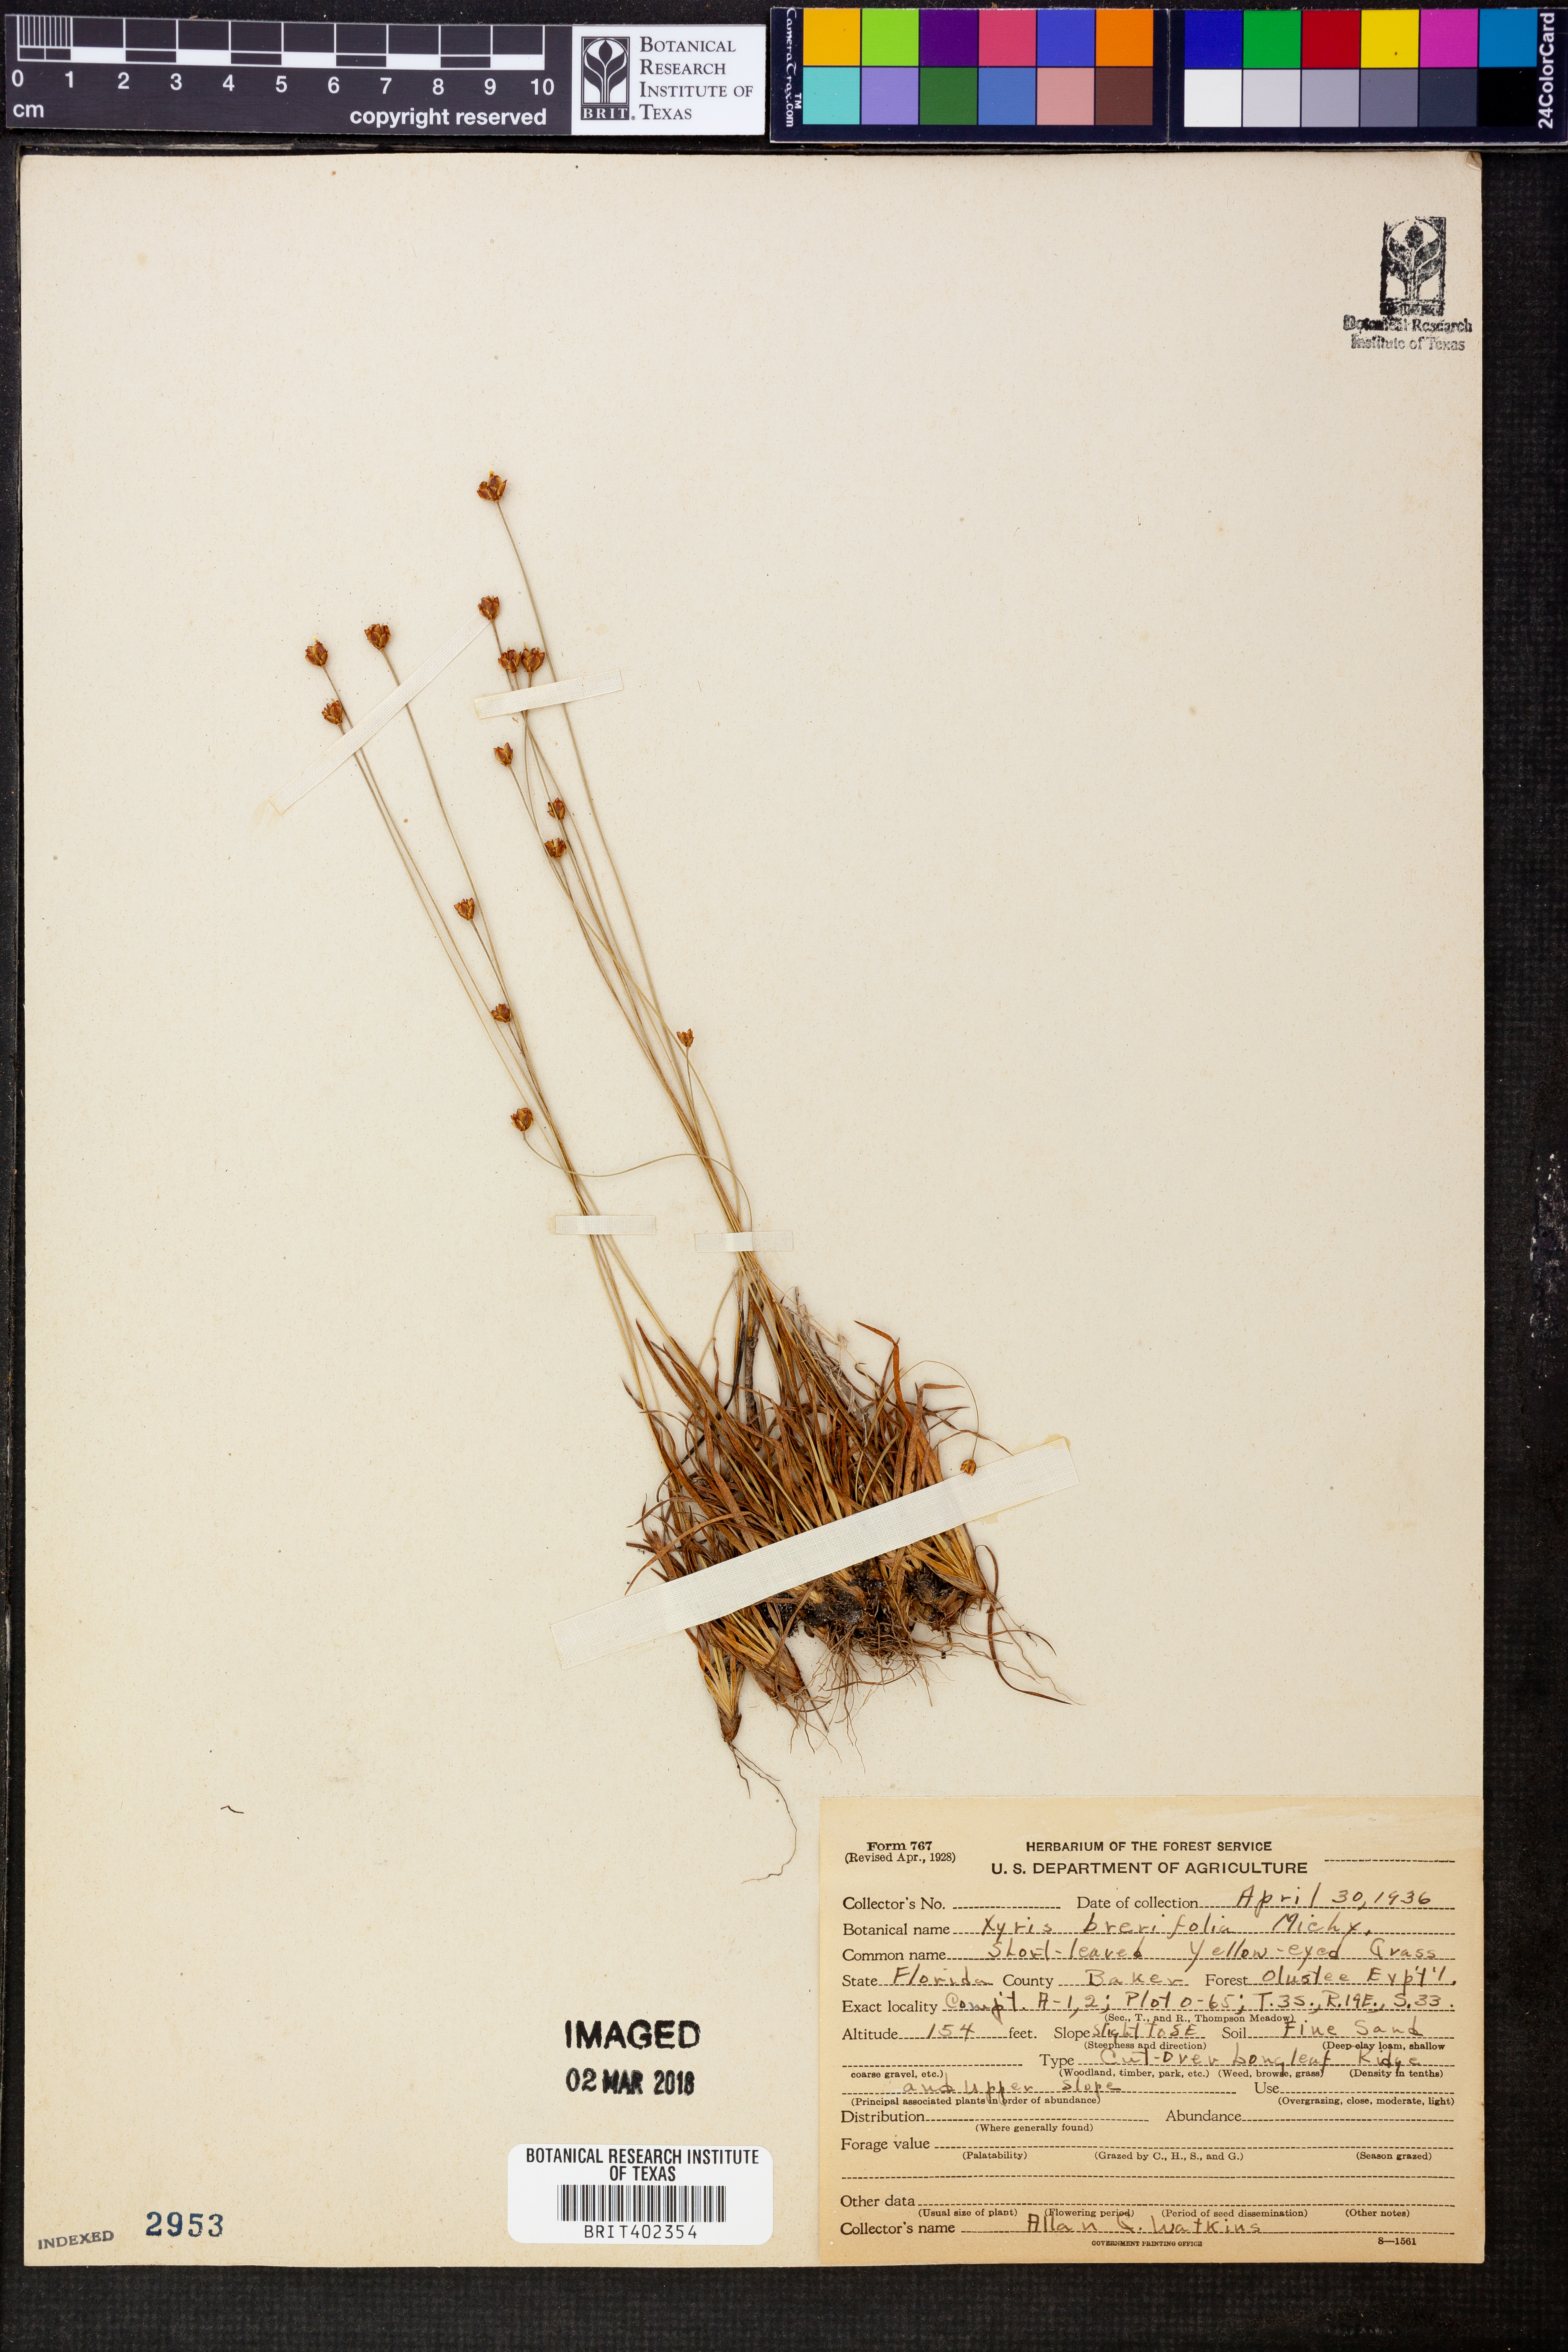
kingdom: Plantae
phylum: Tracheophyta
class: Liliopsida
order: Poales
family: Xyridaceae
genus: Xyris
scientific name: Xyris brevifolia
